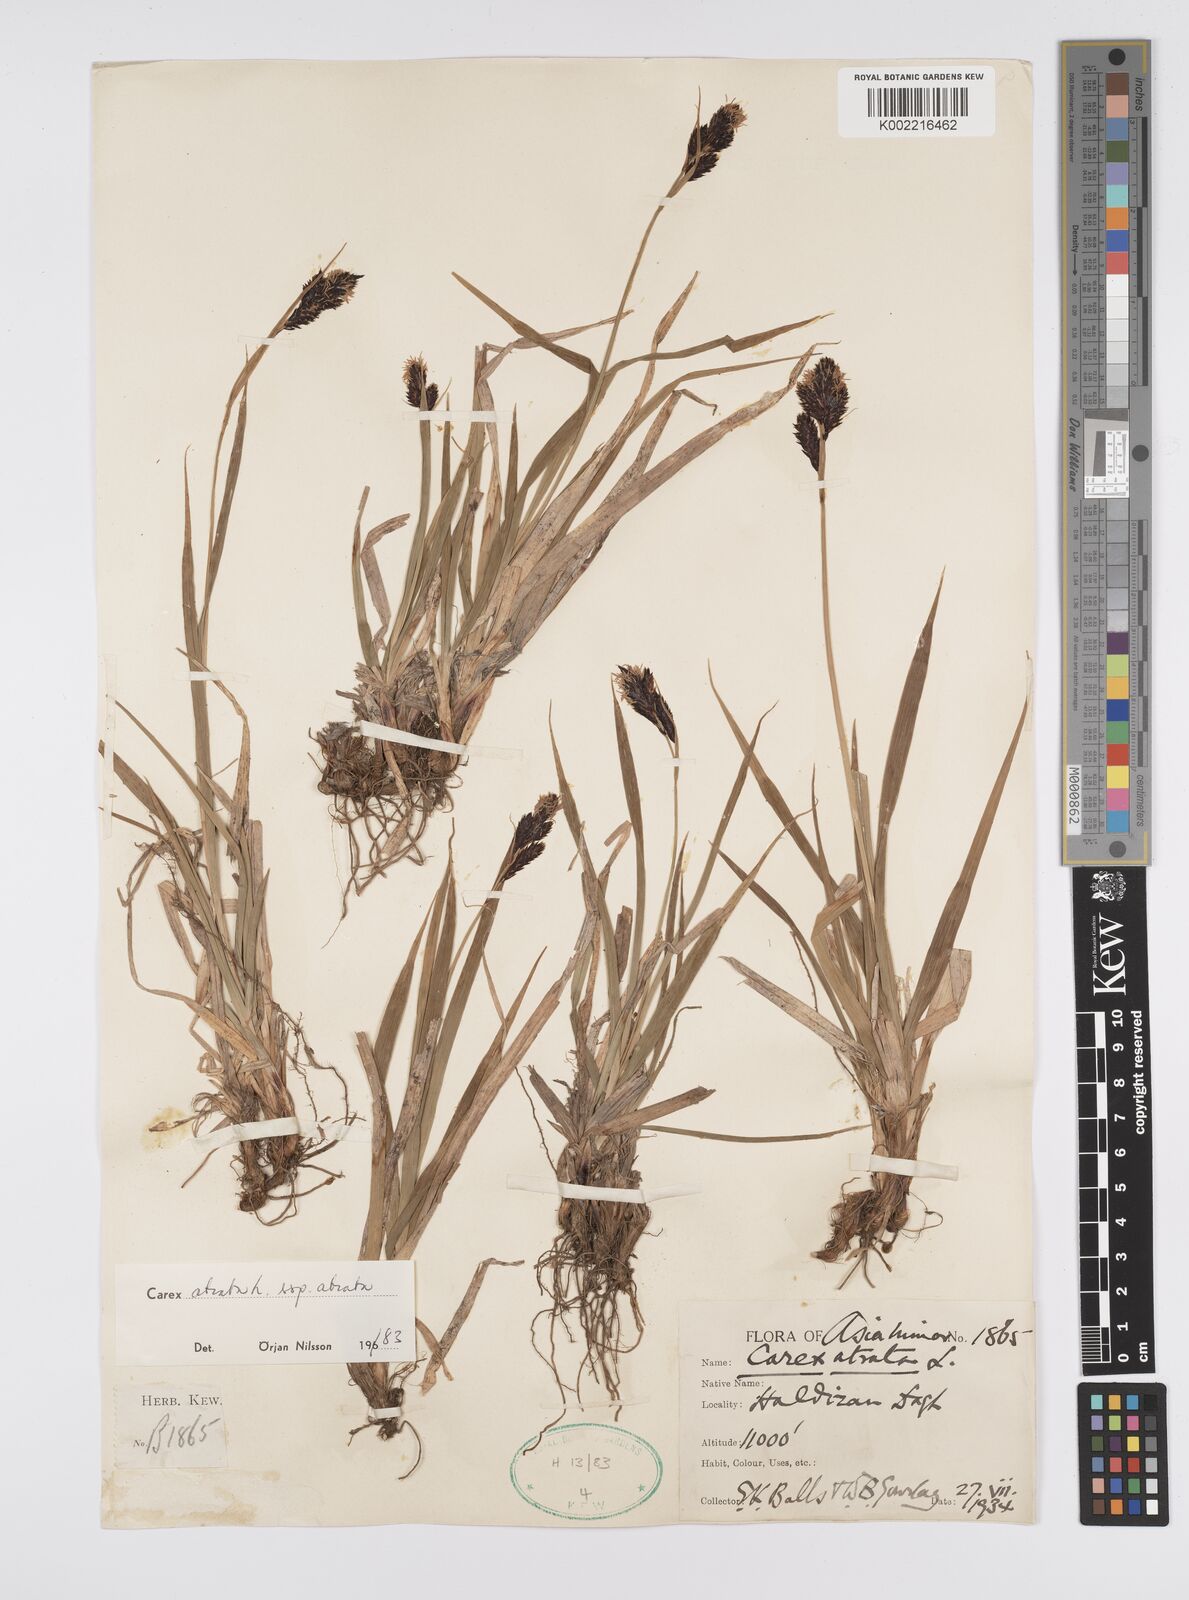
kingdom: Plantae
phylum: Tracheophyta
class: Liliopsida
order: Poales
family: Cyperaceae
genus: Carex
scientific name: Carex atrata
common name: Black alpine sedge
